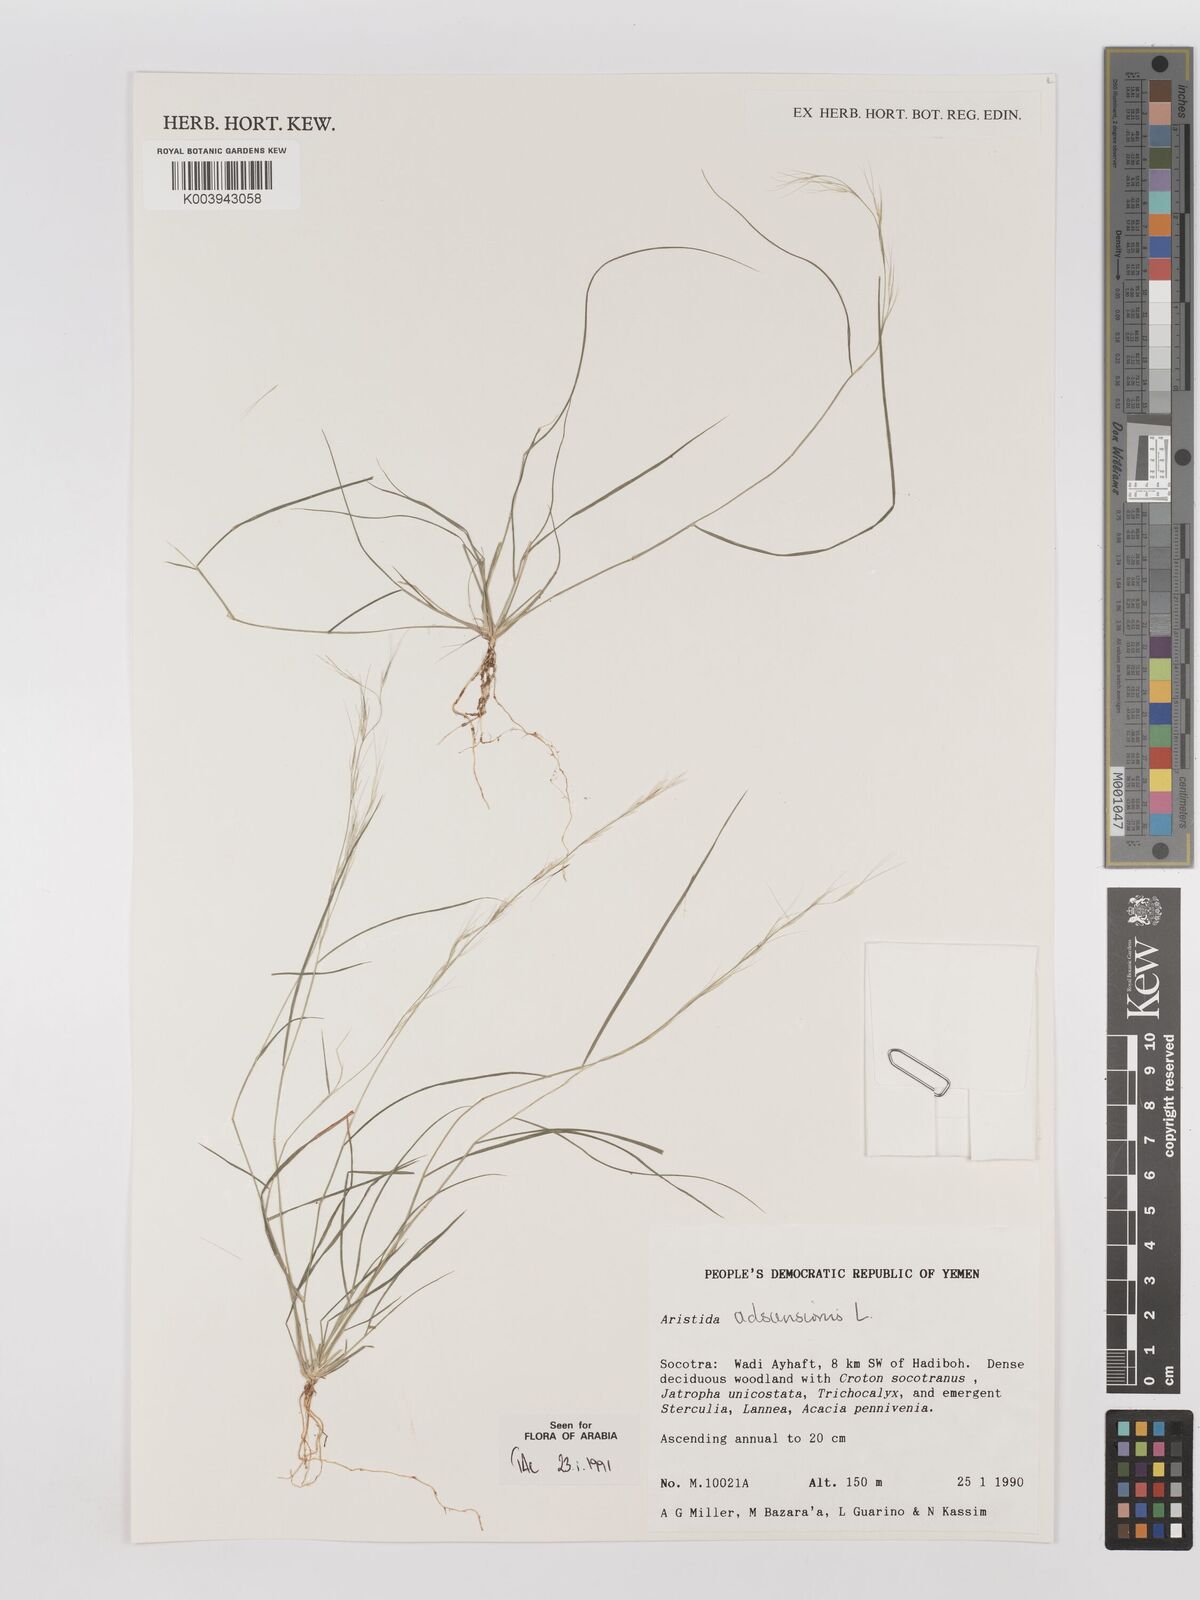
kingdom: Plantae
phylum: Tracheophyta
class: Liliopsida
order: Poales
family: Poaceae
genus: Aristida
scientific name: Aristida adscensionis
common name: Sixweeks threeawn
